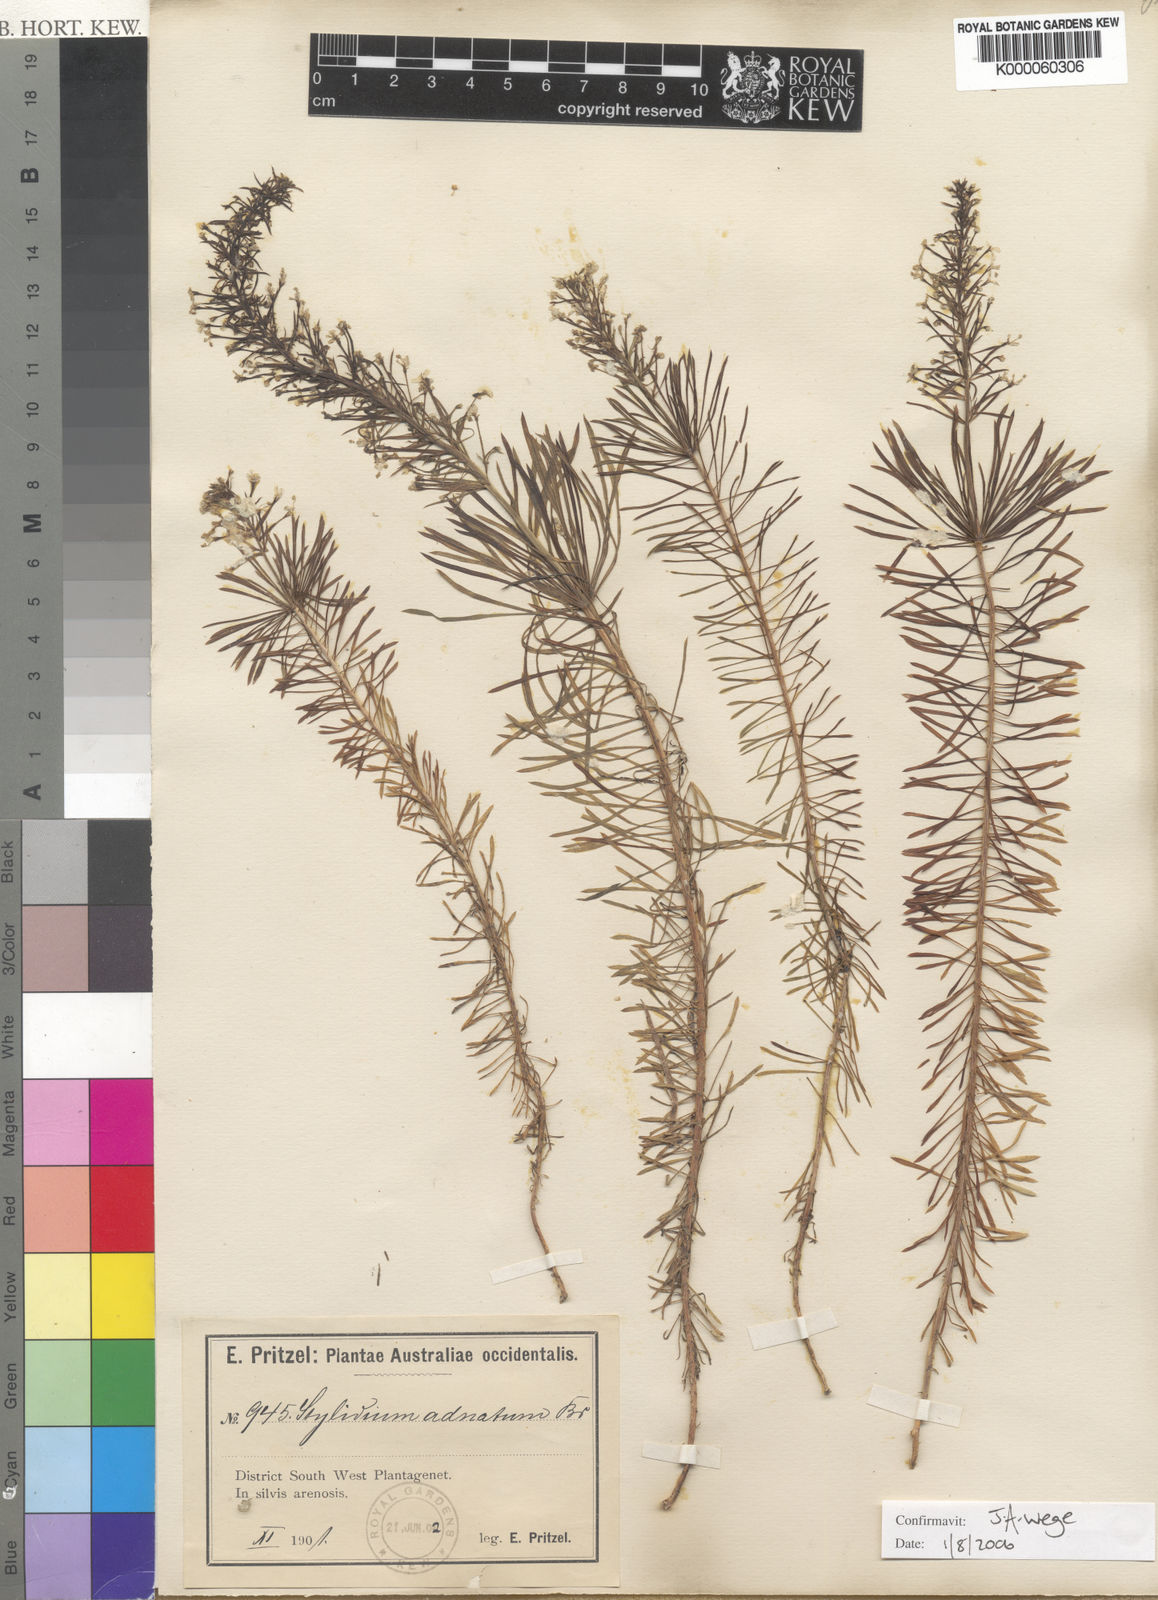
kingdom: Plantae
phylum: Tracheophyta
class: Magnoliopsida
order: Asterales
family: Stylidiaceae
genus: Stylidium
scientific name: Stylidium adnatum
